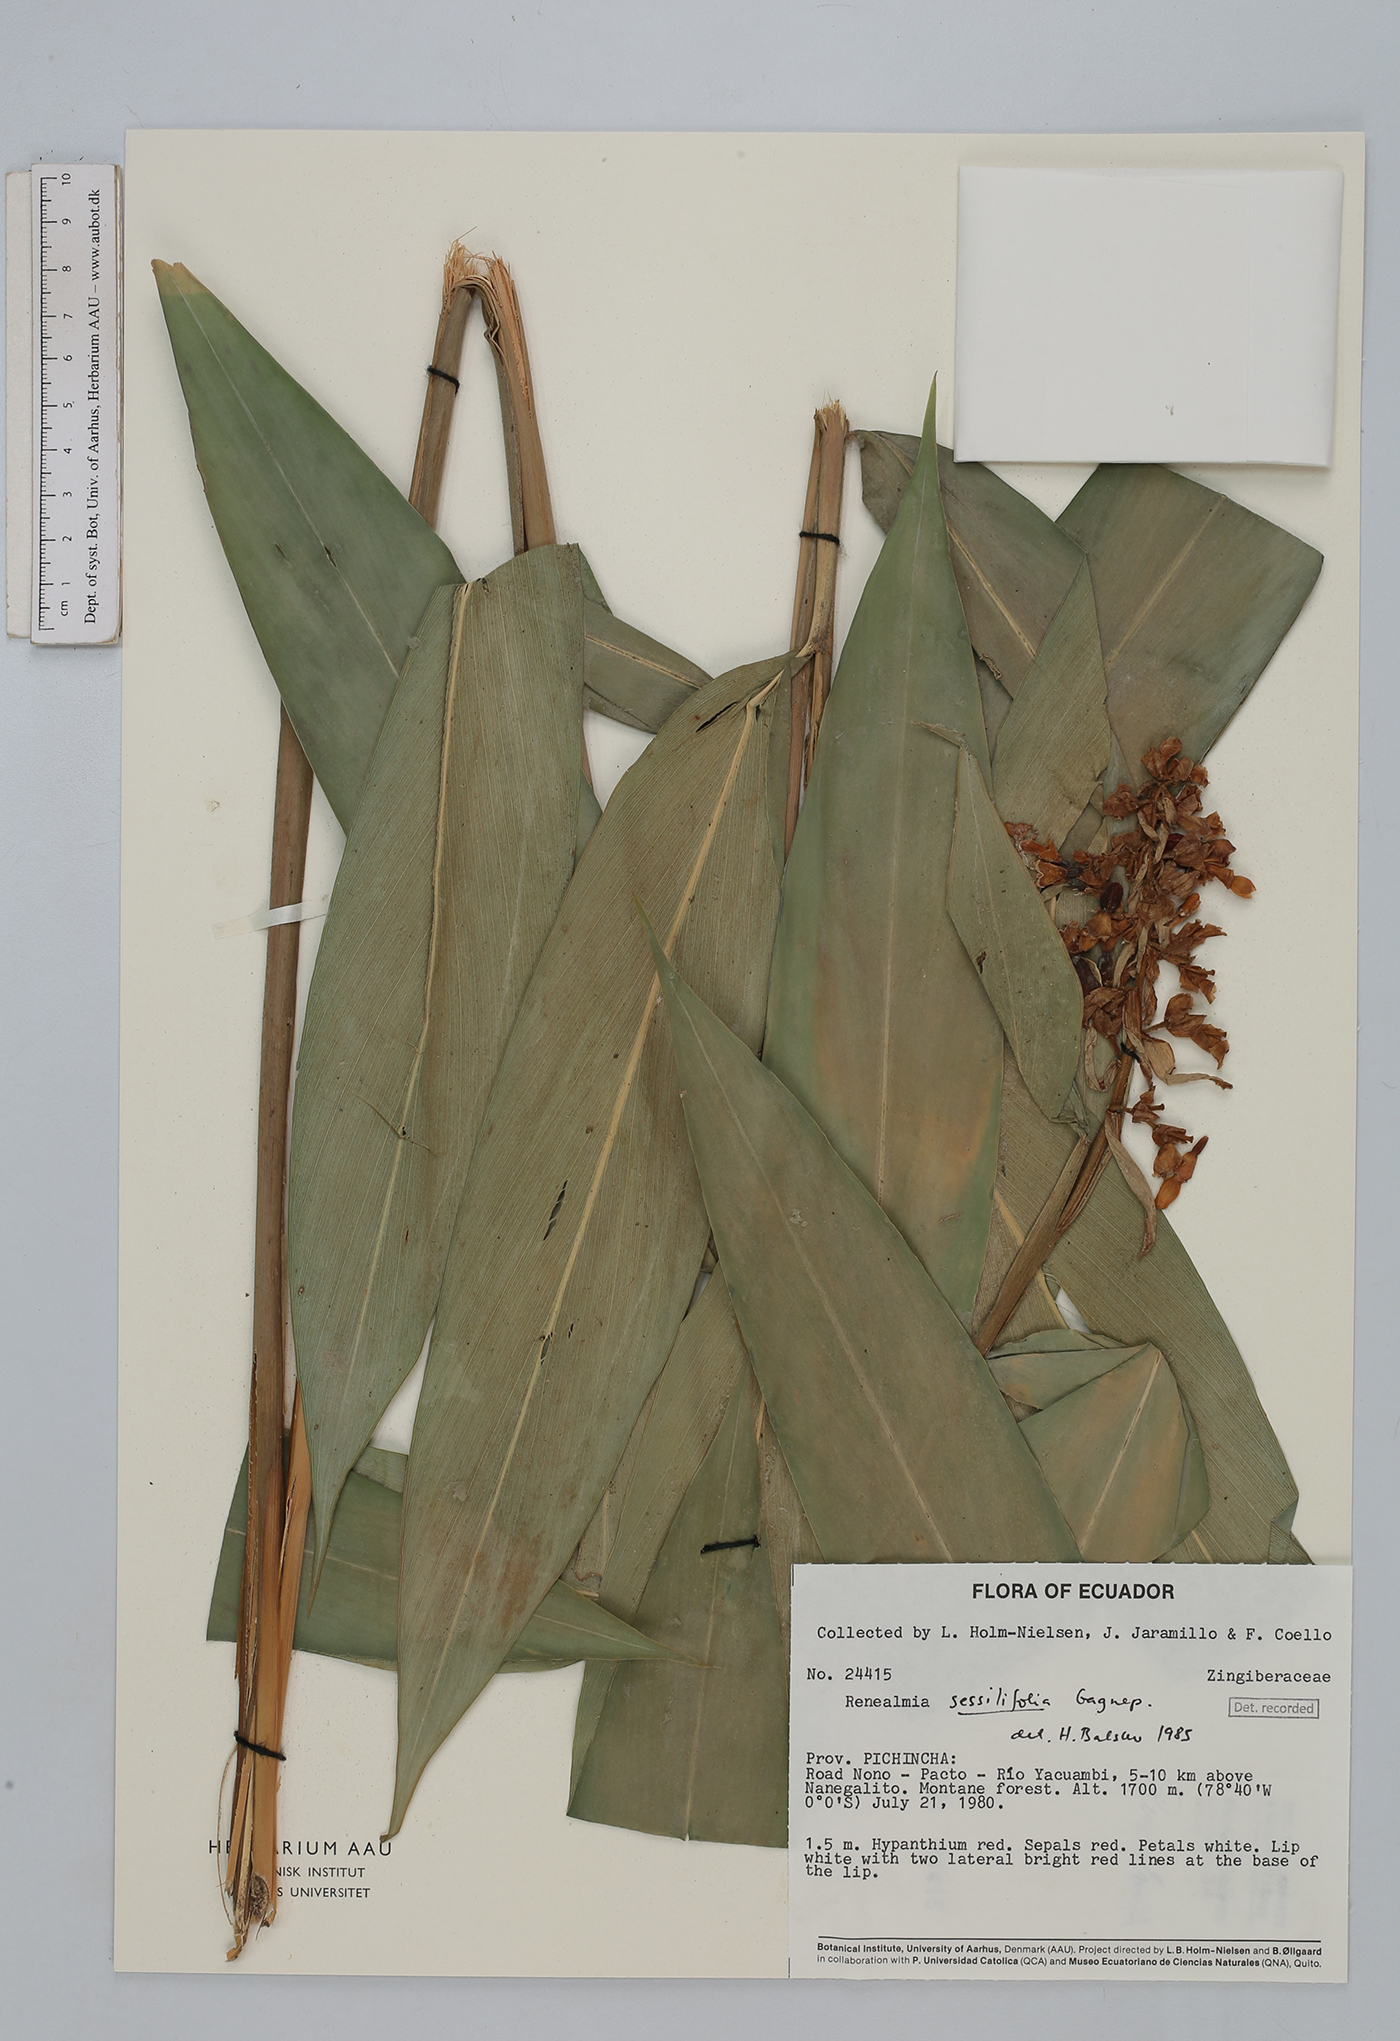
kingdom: Plantae
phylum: Tracheophyta
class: Liliopsida
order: Zingiberales
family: Zingiberaceae
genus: Renealmia
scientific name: Renealmia sessilifolia
